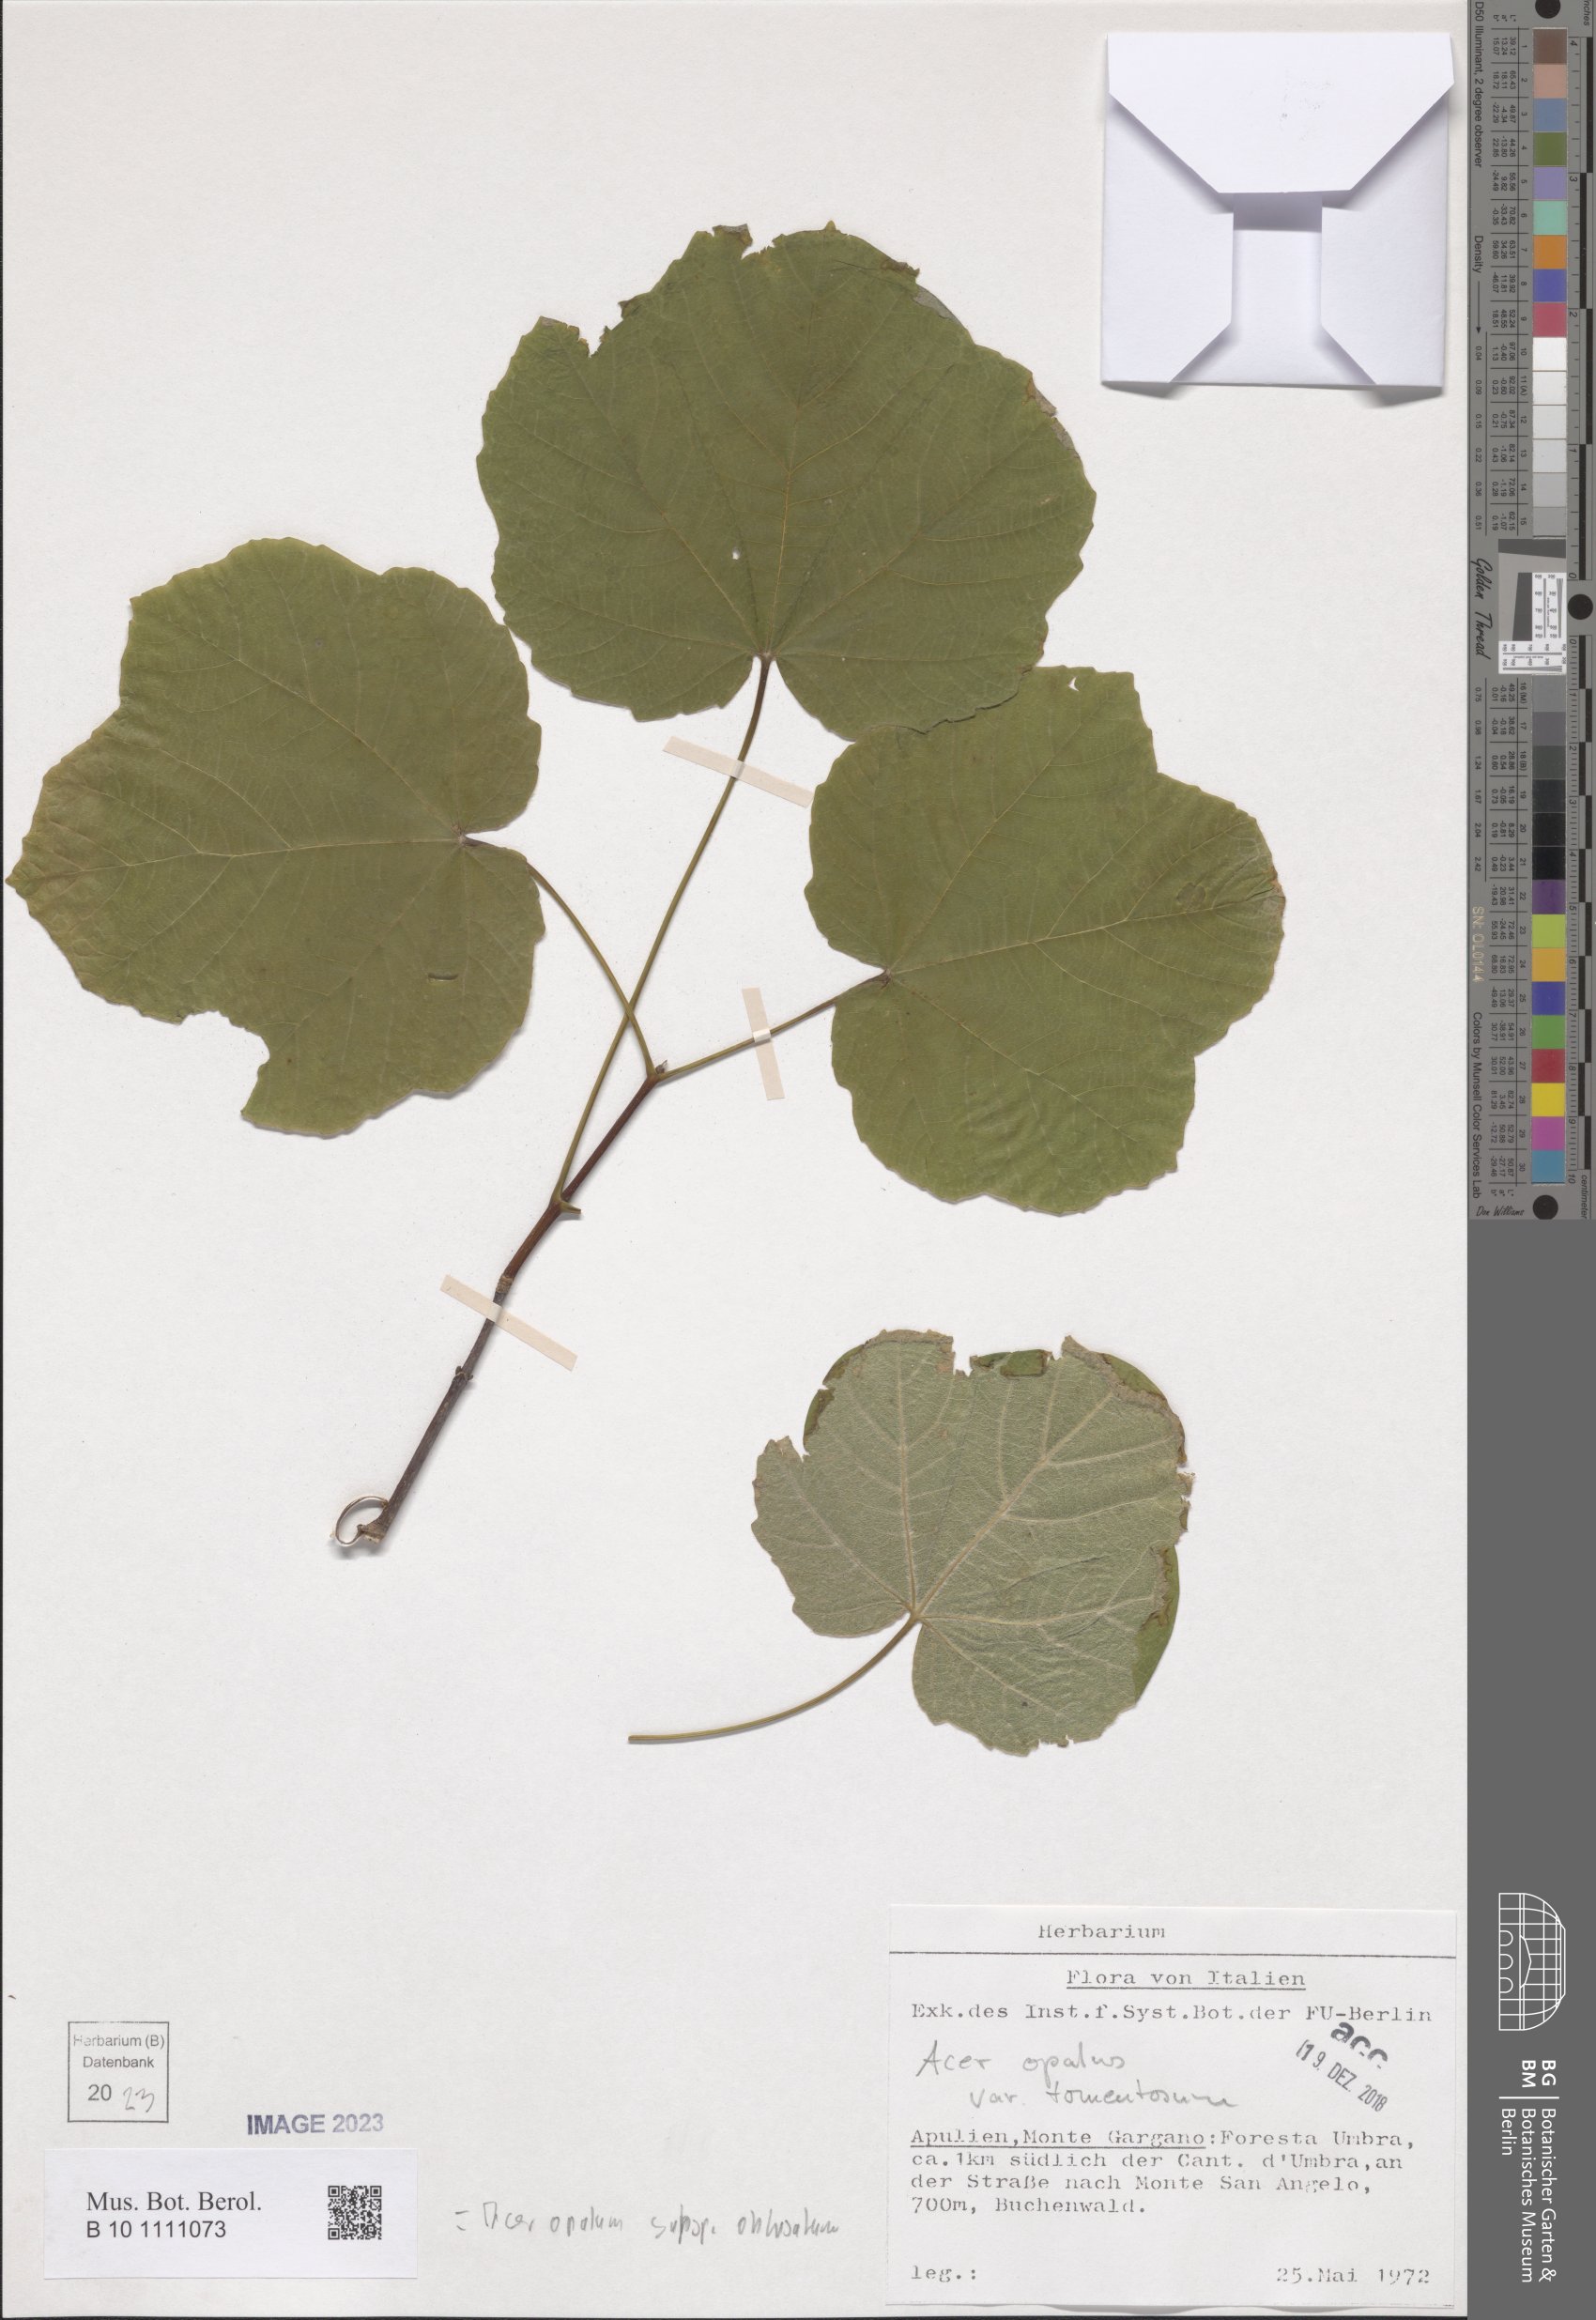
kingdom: Plantae
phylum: Tracheophyta
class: Magnoliopsida
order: Sapindales
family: Sapindaceae
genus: Acer
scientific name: Acer obtusatum
